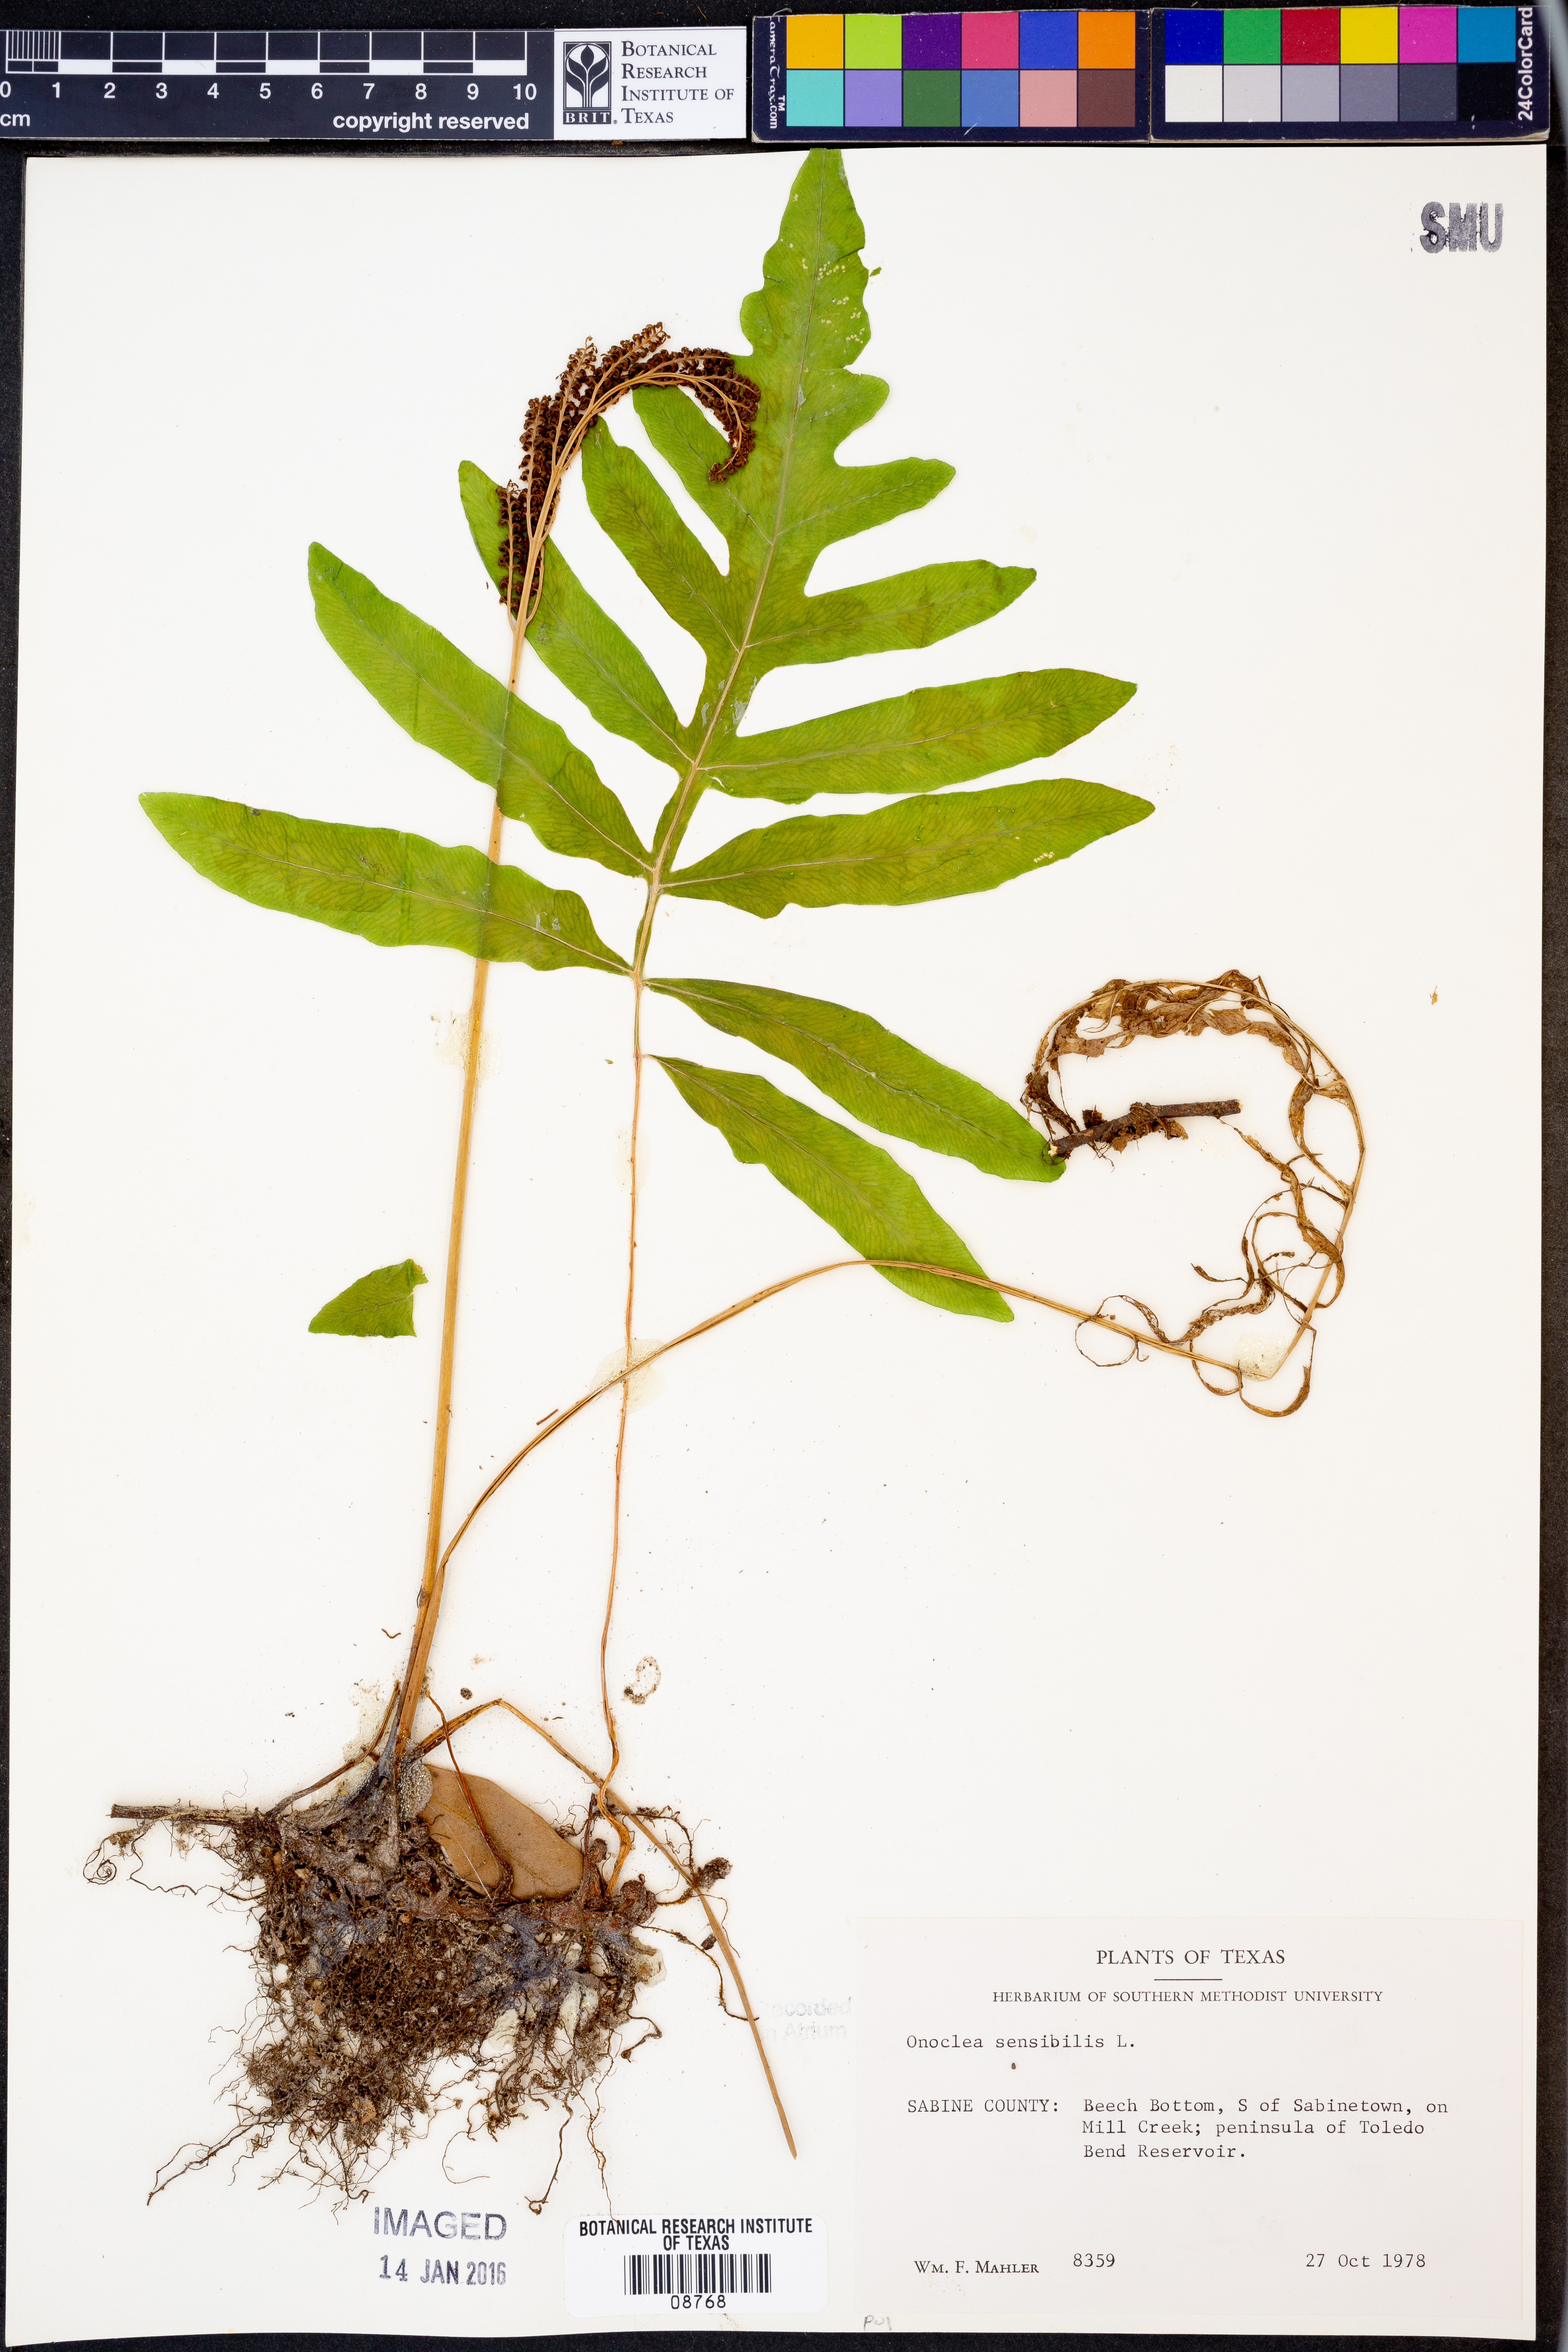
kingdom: Plantae
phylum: Tracheophyta
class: Polypodiopsida
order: Polypodiales
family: Onocleaceae
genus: Onoclea
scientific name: Onoclea sensibilis
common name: Sensitive fern
